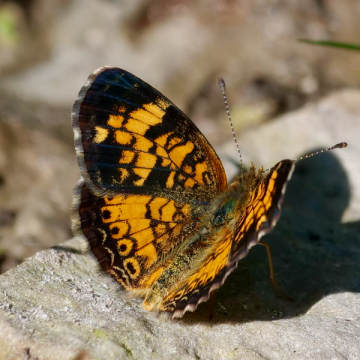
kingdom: Animalia
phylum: Arthropoda
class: Insecta
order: Lepidoptera
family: Nymphalidae
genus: Phyciodes
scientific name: Phyciodes tharos
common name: Pearl Crescent
